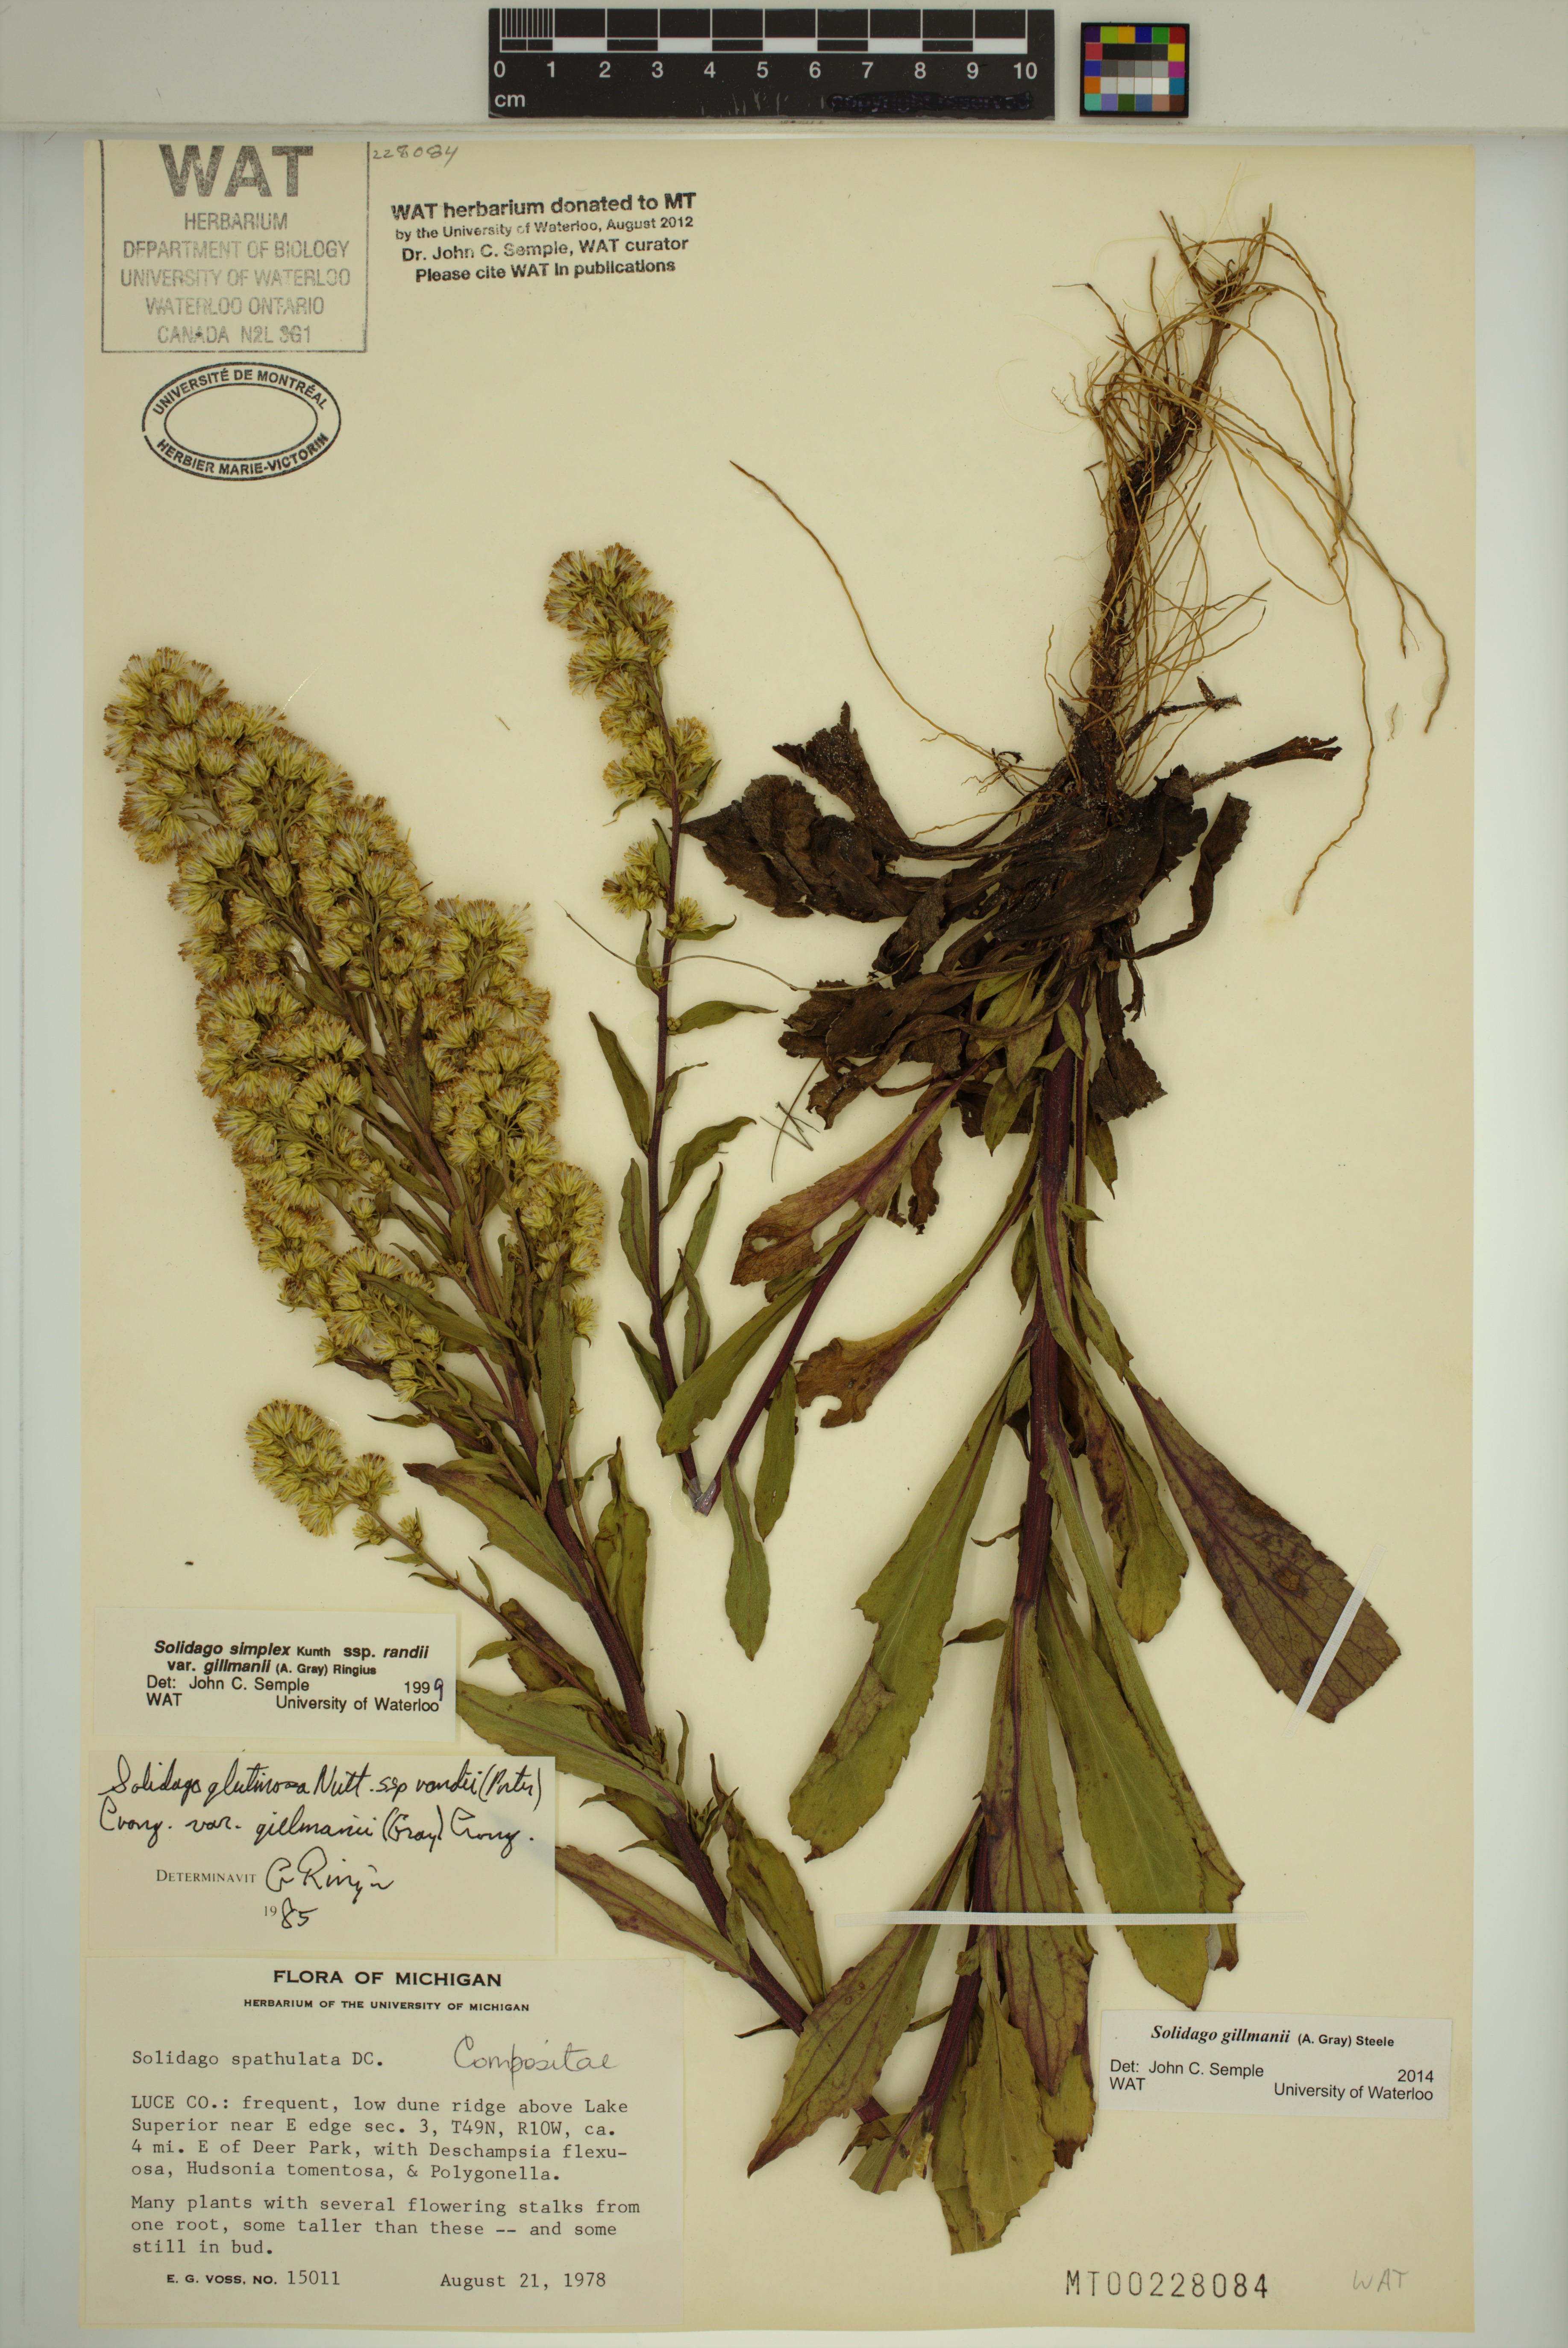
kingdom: Plantae
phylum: Tracheophyta
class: Magnoliopsida
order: Asterales
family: Asteraceae
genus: Solidago
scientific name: Solidago gillmanii
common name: Gillman's goldenrod
